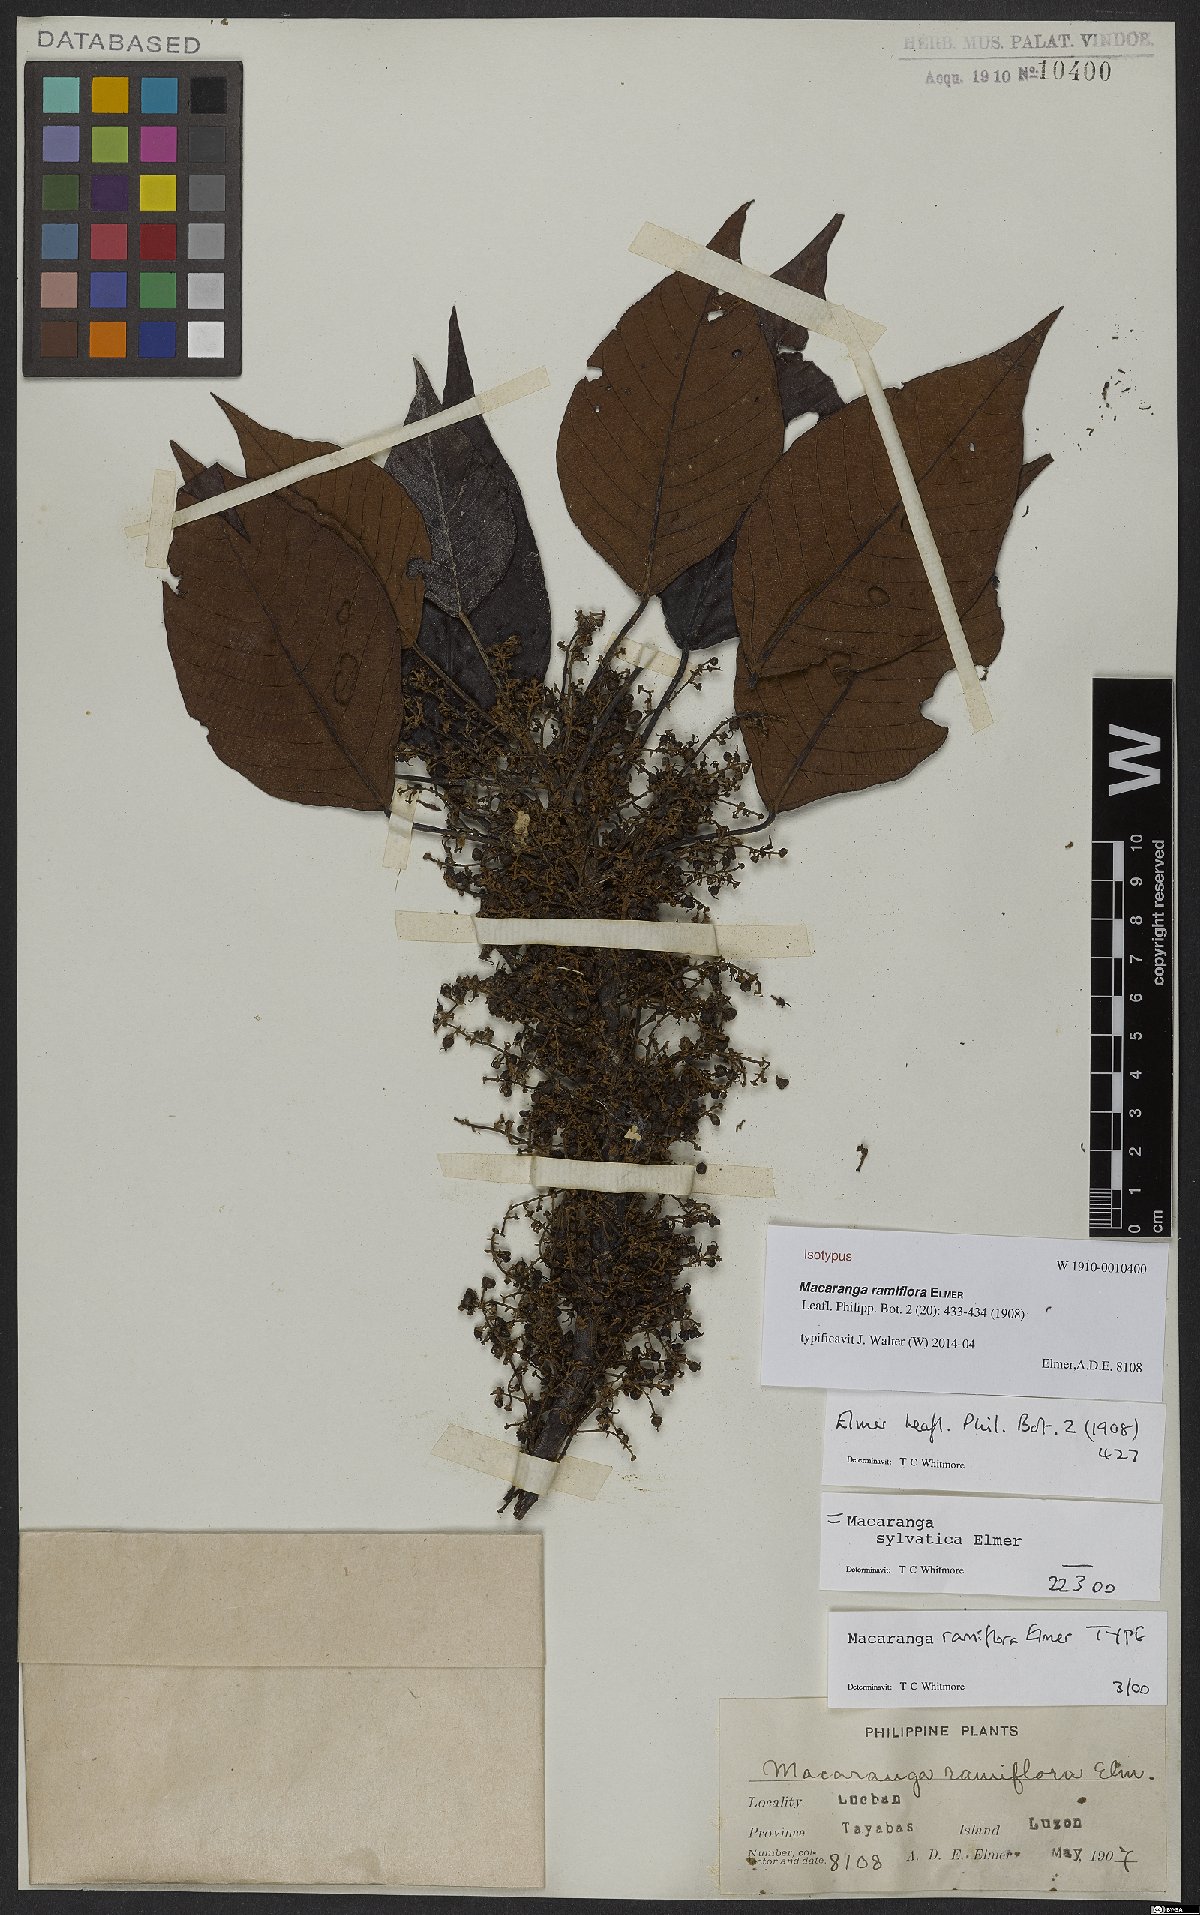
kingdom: Plantae
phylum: Tracheophyta
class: Magnoliopsida
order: Malpighiales
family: Euphorbiaceae
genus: Macaranga
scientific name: Macaranga ramiflora
